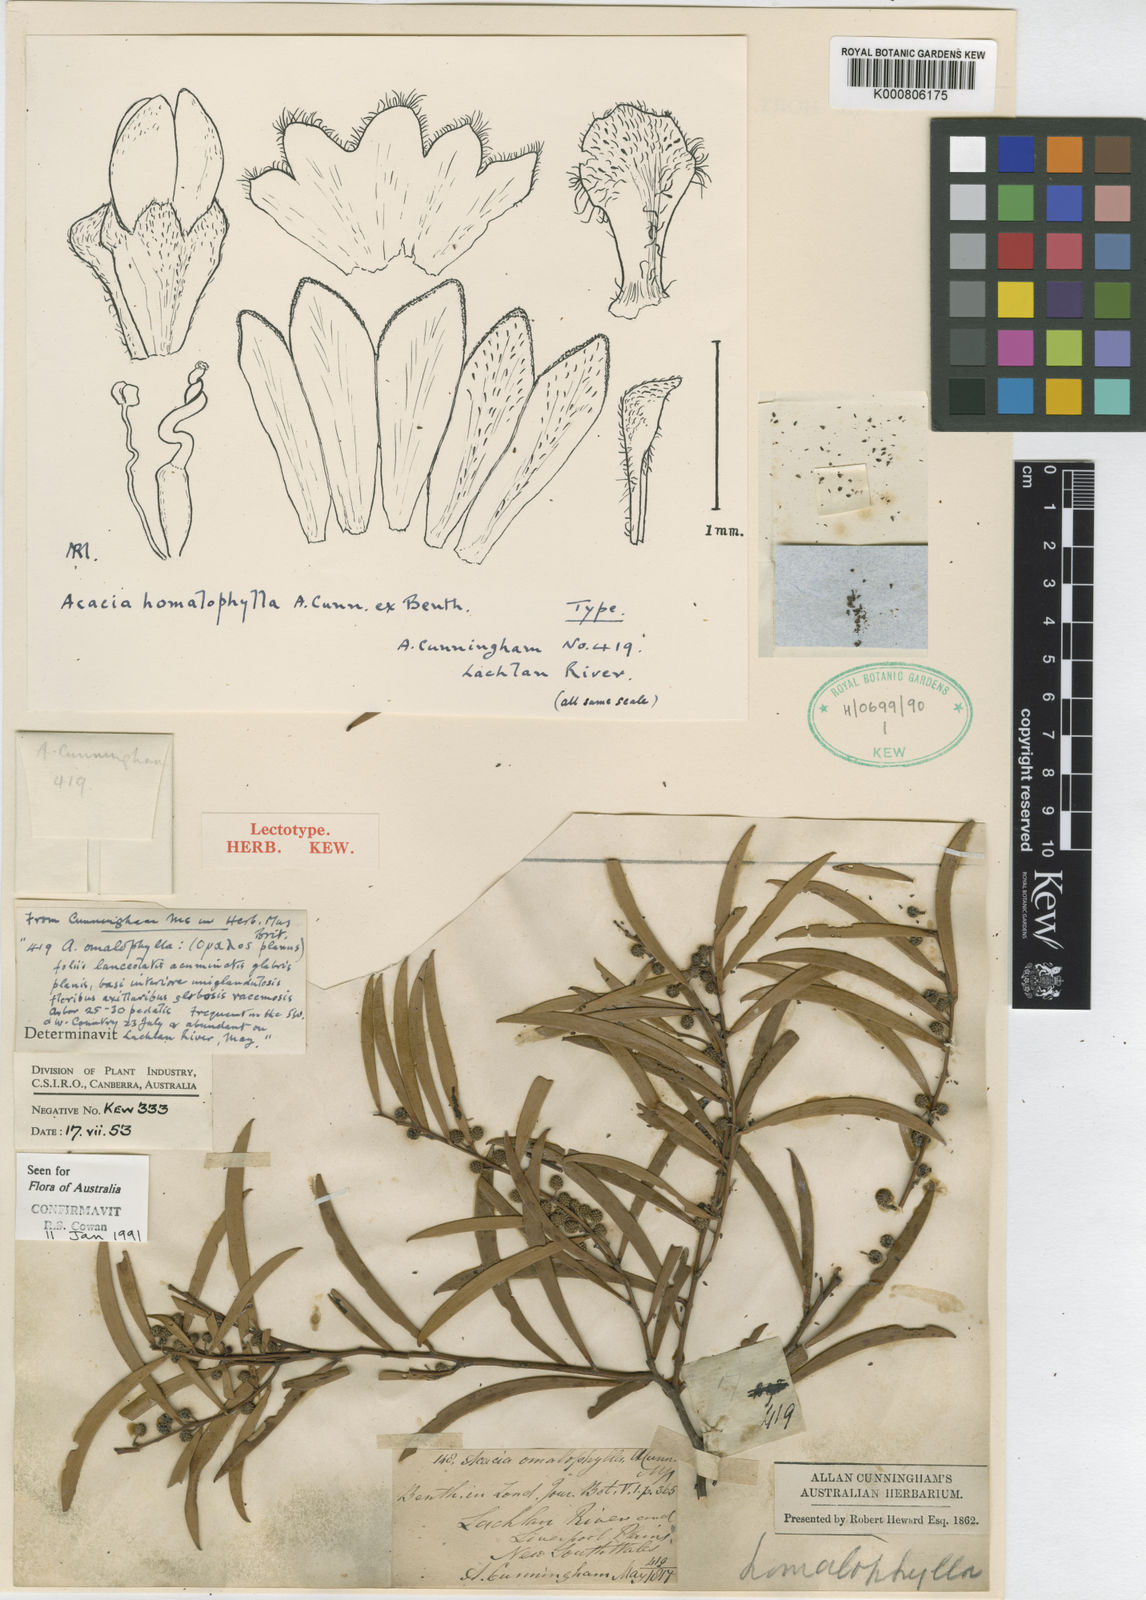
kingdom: Plantae
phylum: Tracheophyta
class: Magnoliopsida
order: Fabales
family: Fabaceae
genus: Acacia
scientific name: Acacia
